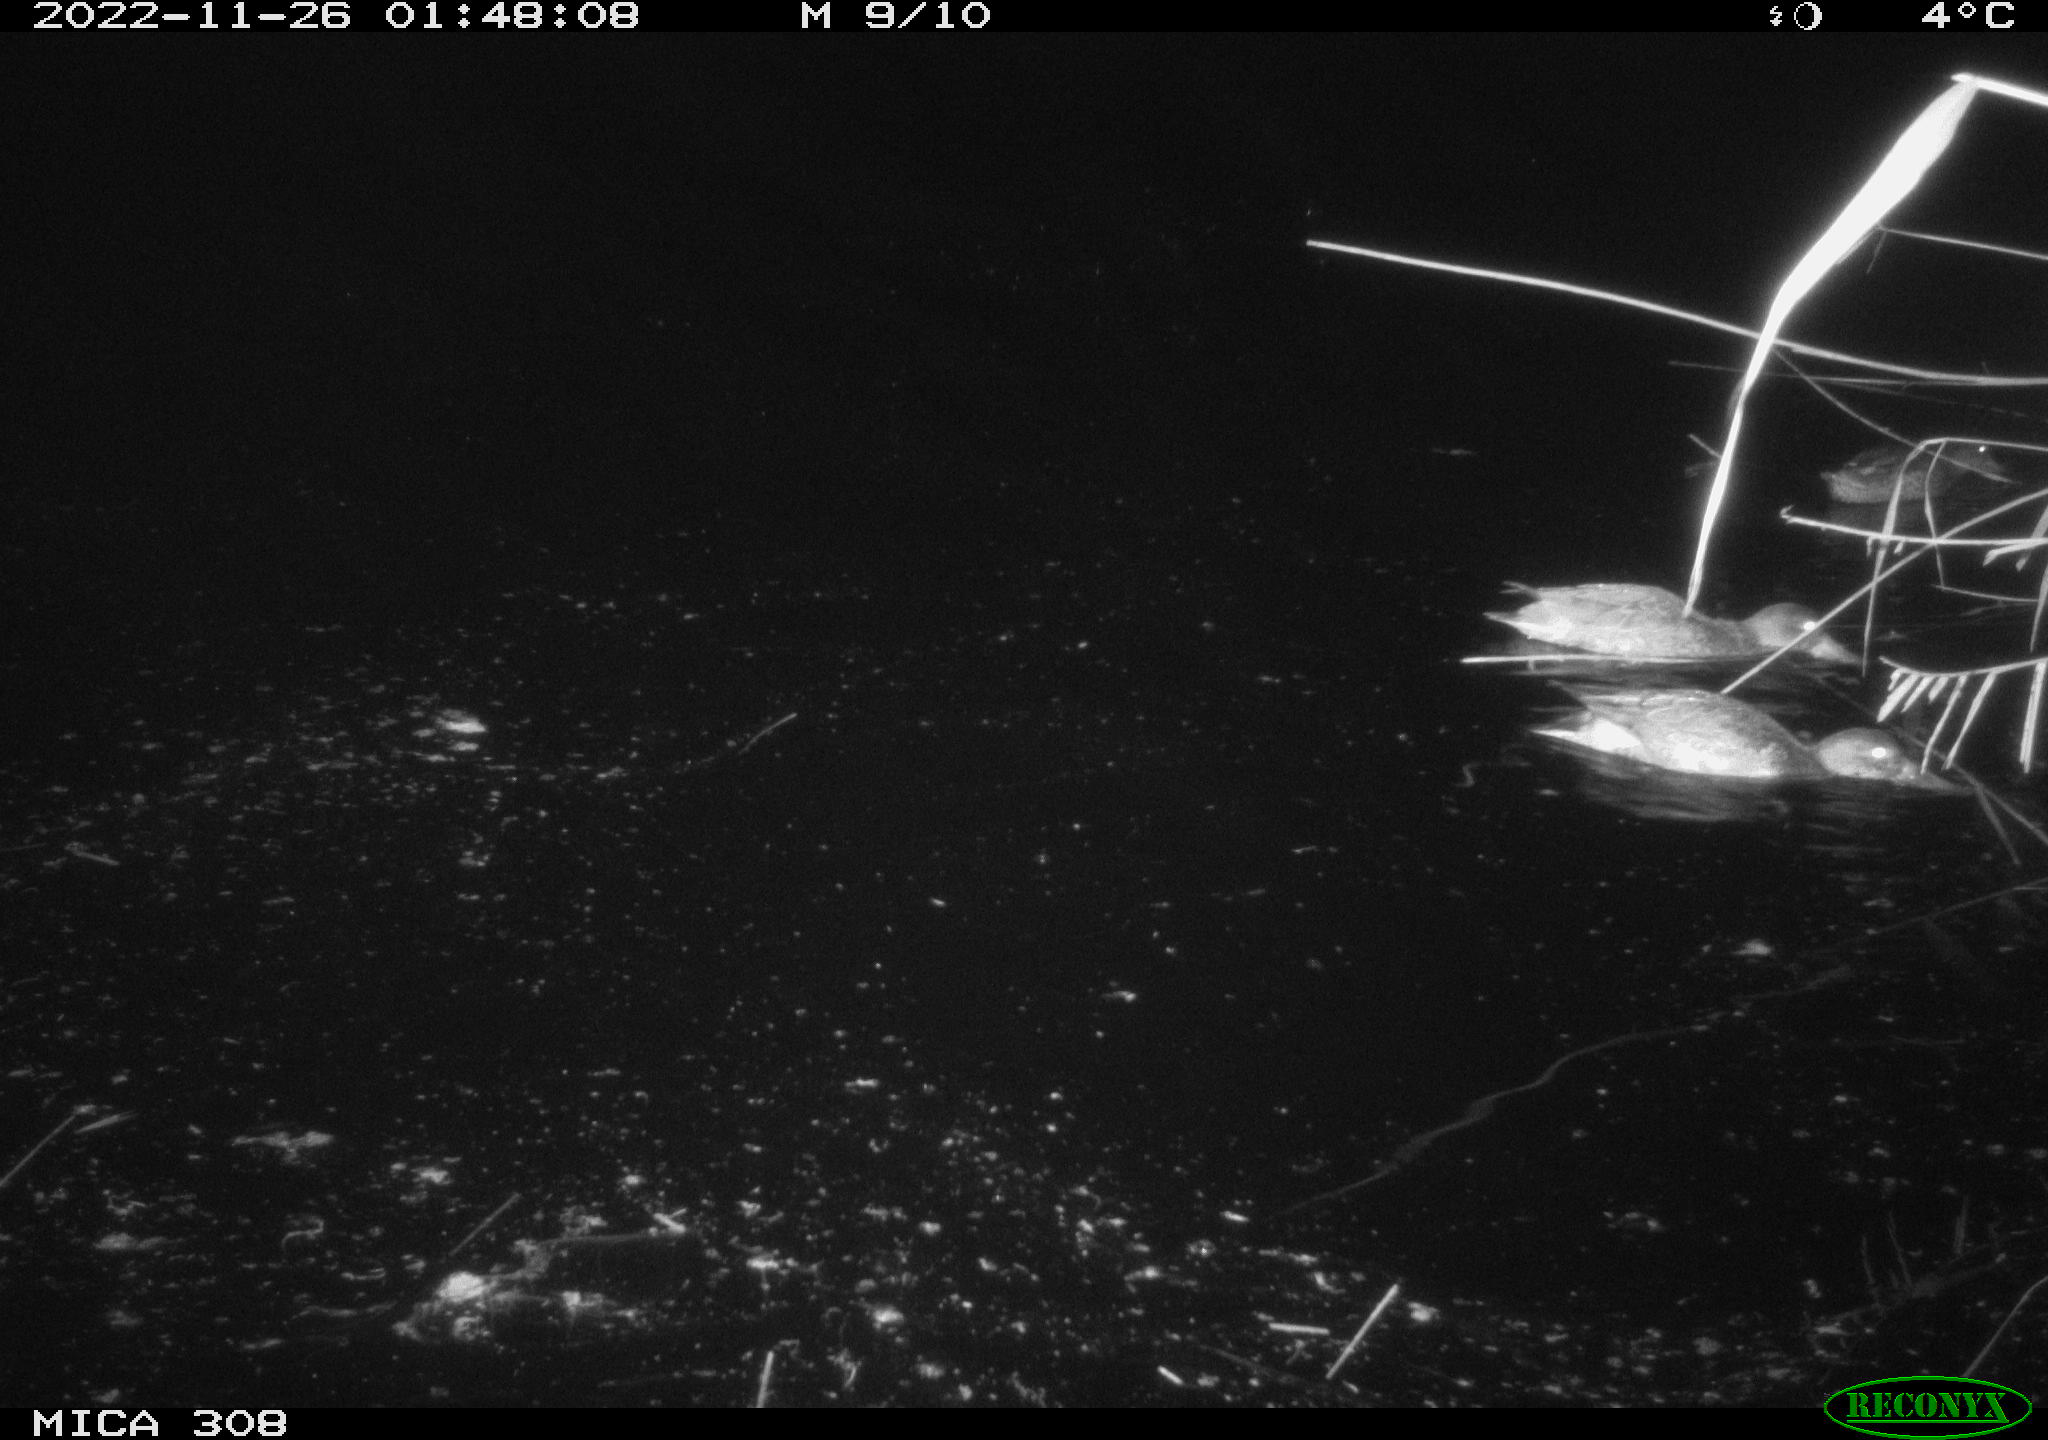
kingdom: Animalia
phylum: Chordata
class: Aves
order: Anseriformes
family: Anatidae
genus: Anas
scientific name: Anas
